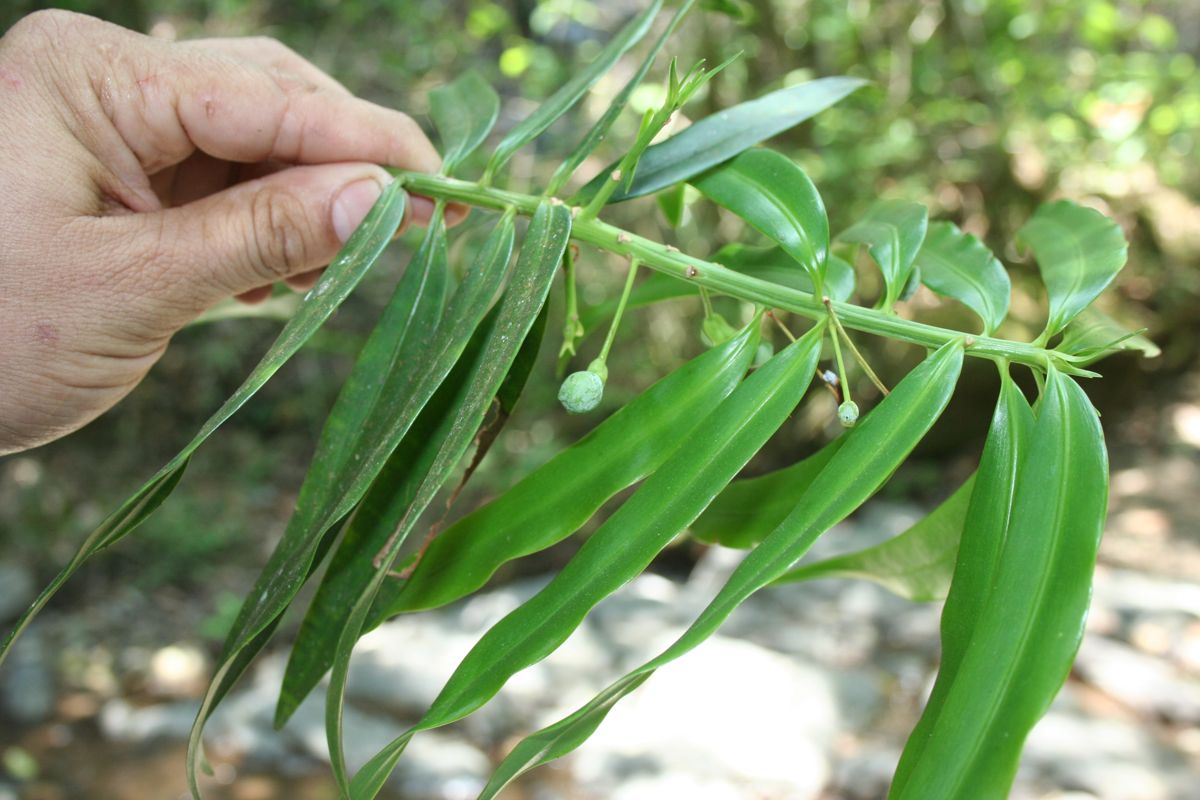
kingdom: Plantae
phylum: Tracheophyta
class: Pinopsida
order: Pinales
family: Podocarpaceae
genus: Podocarpus
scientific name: Podocarpus oleifolius
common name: Olive-leaf podoberry
